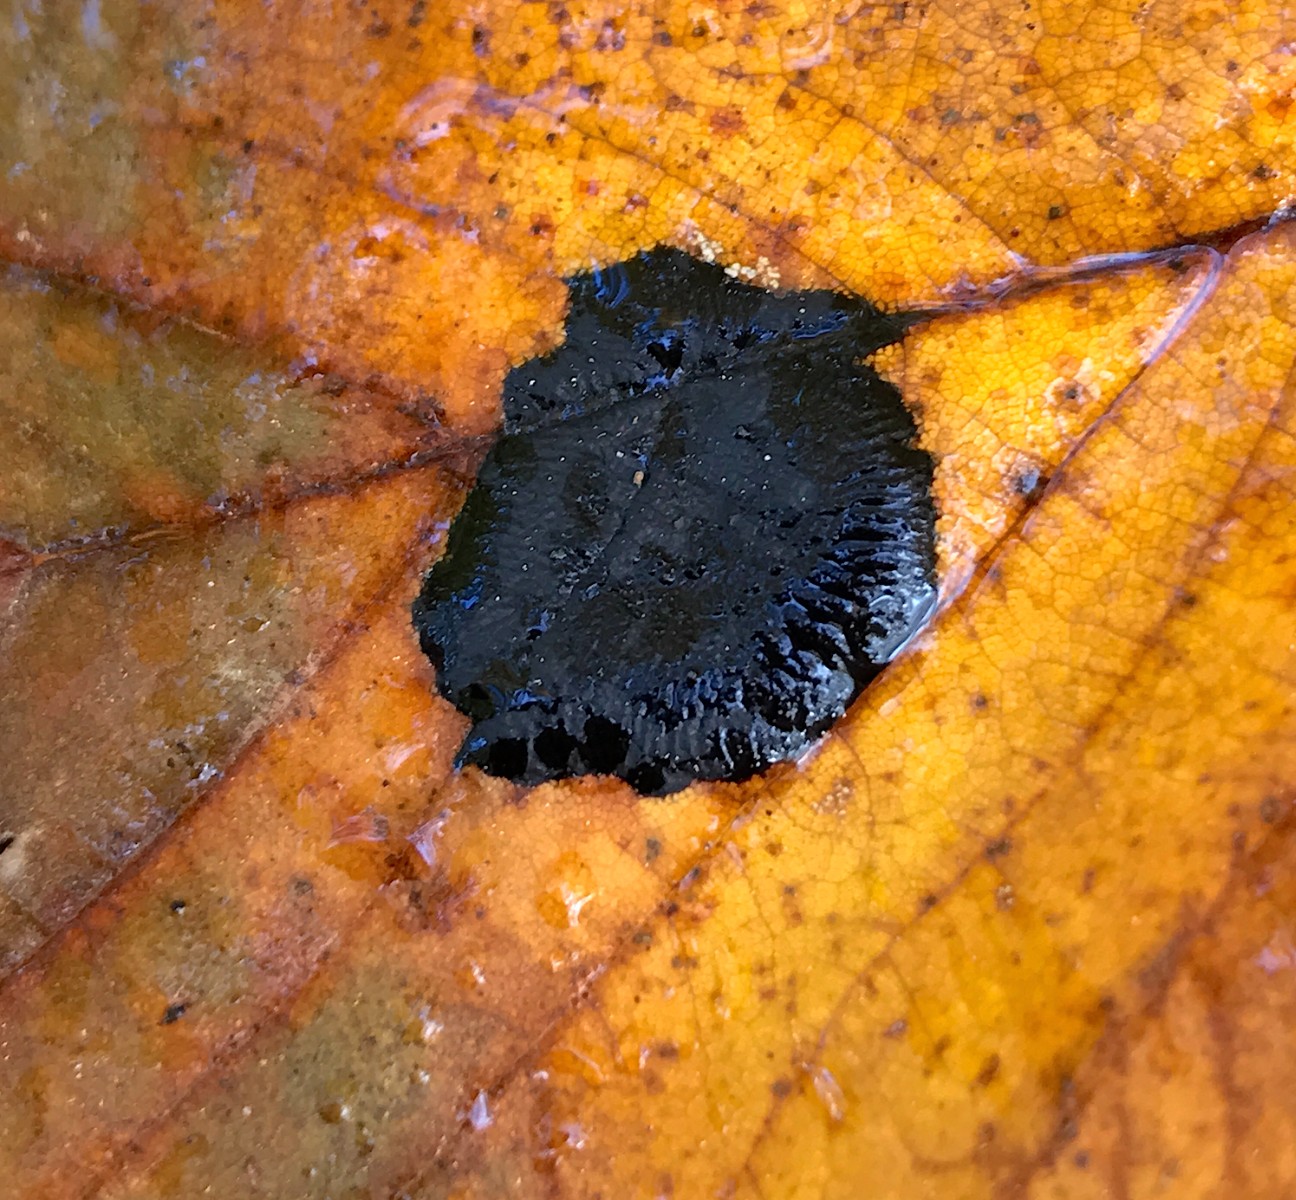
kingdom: Fungi
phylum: Ascomycota
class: Leotiomycetes
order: Rhytismatales
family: Rhytismataceae
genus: Rhytisma
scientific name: Rhytisma acerinum
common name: ahorn-rynkeplet
